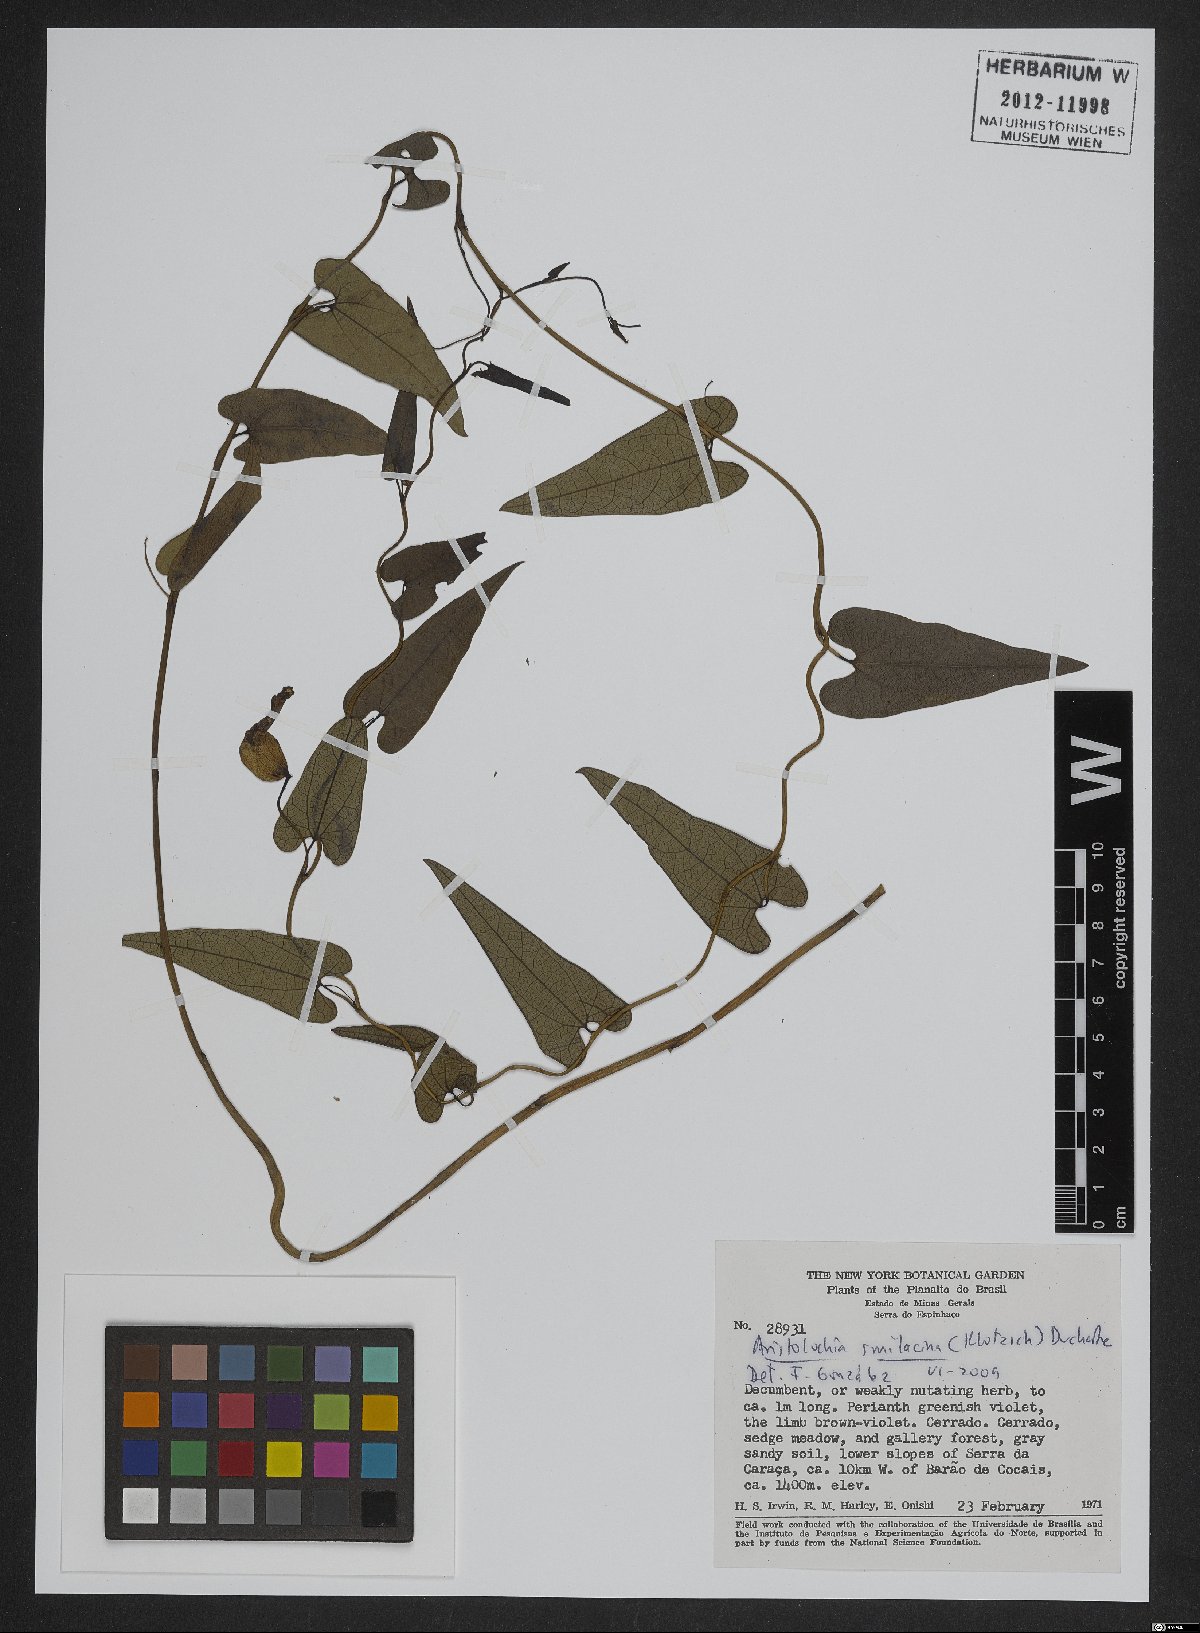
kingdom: Plantae
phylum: Tracheophyta
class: Magnoliopsida
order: Piperales
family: Aristolochiaceae
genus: Aristolochia
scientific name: Aristolochia smilacina
